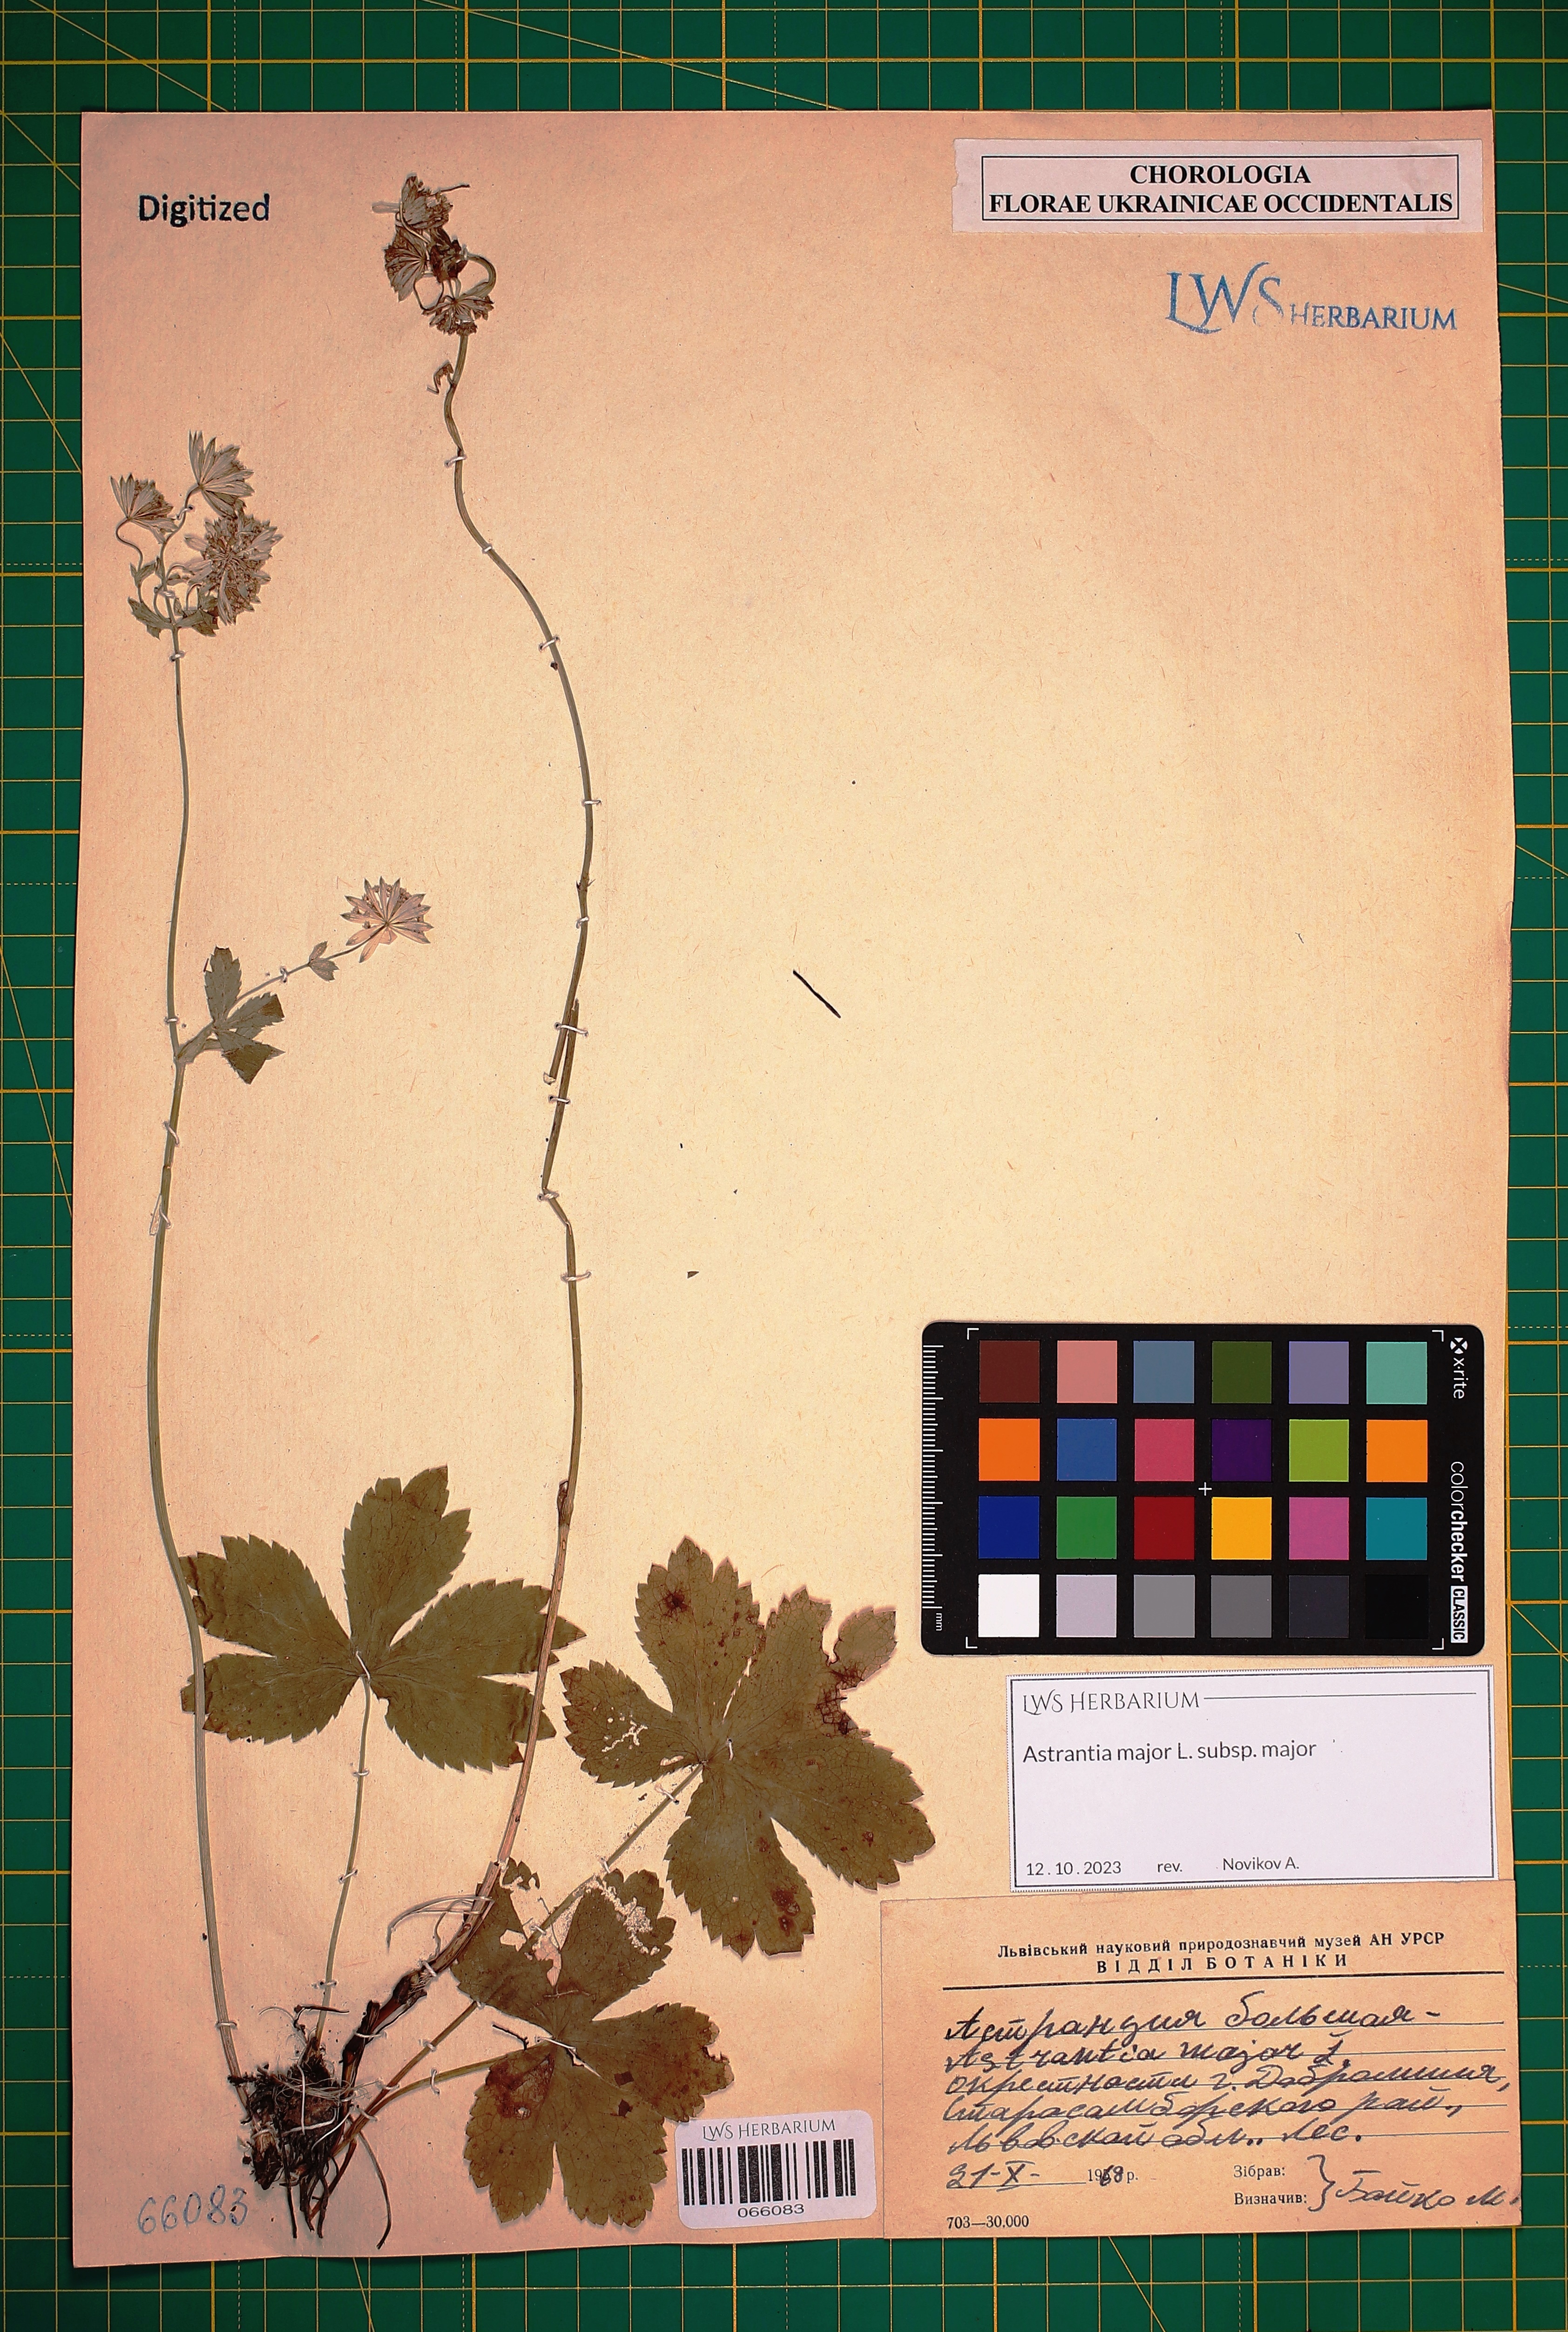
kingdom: Plantae
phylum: Tracheophyta
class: Magnoliopsida
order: Apiales
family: Apiaceae
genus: Astrantia
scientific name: Astrantia major
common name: Greater masterwort
